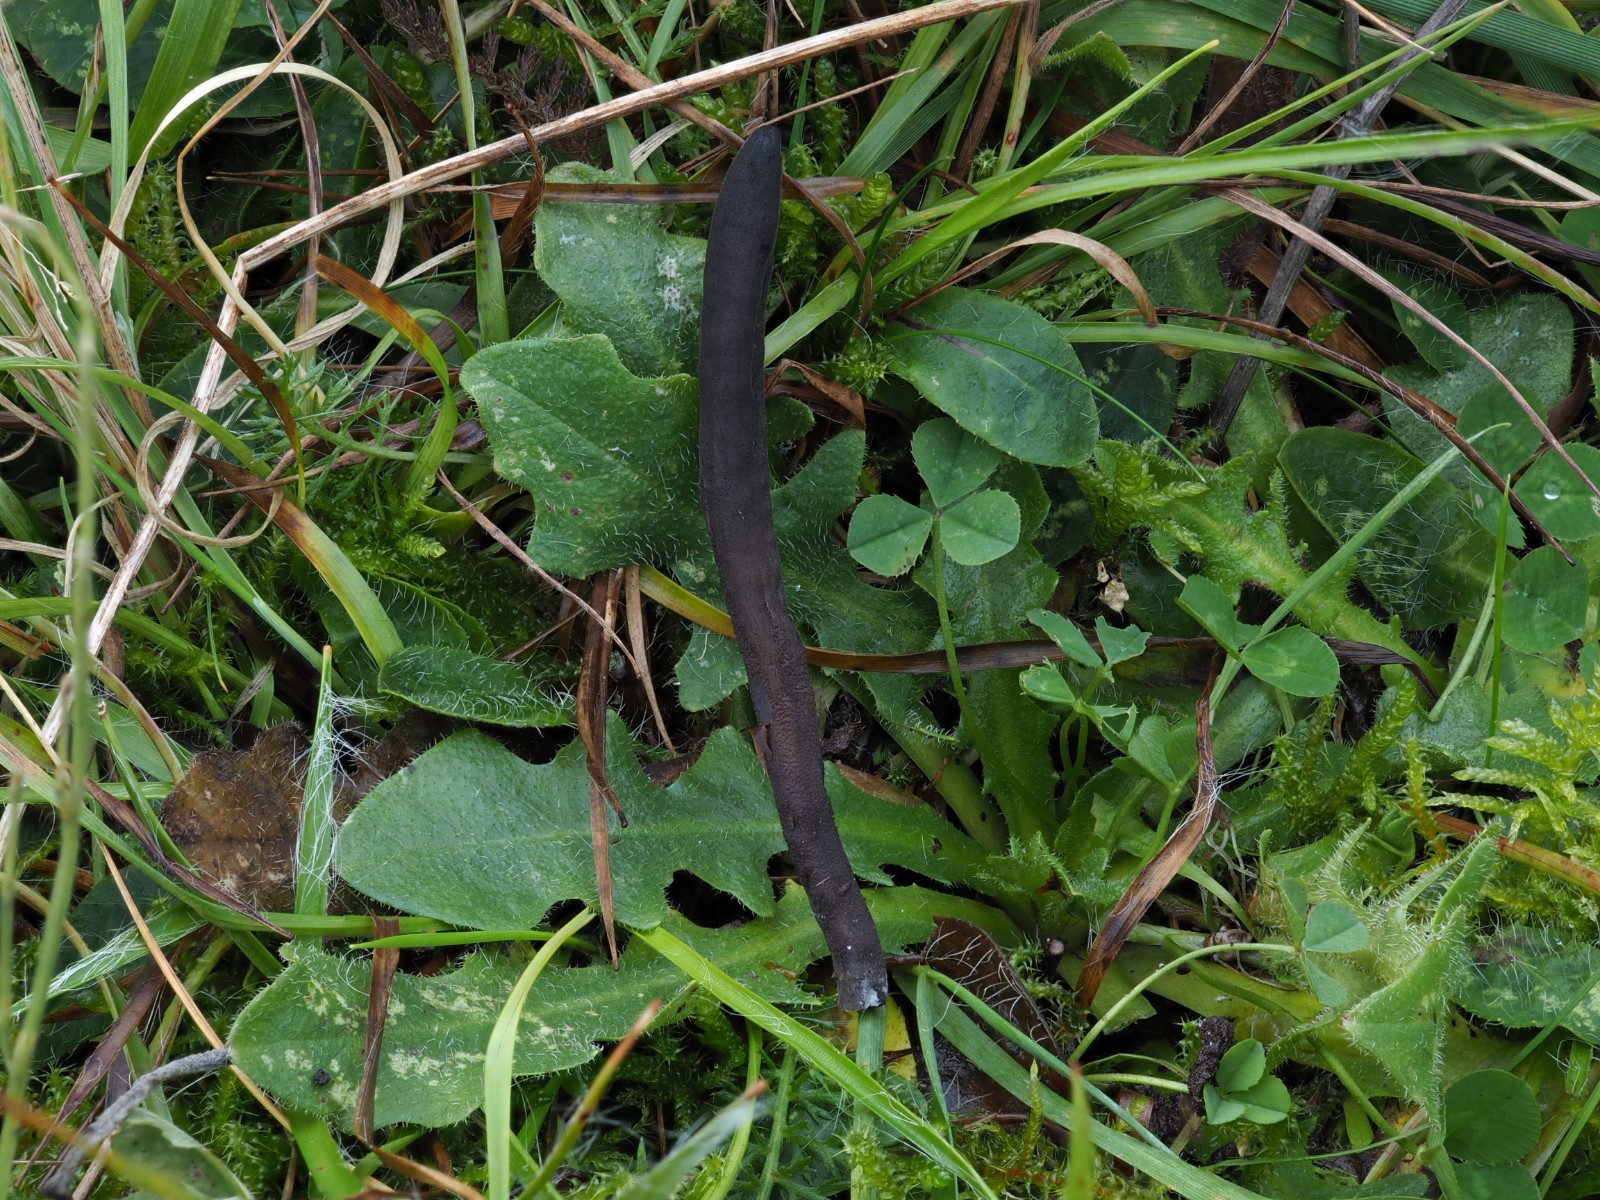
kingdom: Fungi
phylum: Ascomycota
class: Geoglossomycetes
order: Geoglossales
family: Geoglossaceae
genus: Hemileucoglossum
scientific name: Hemileucoglossum elongatum
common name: småsporet jordtunge
